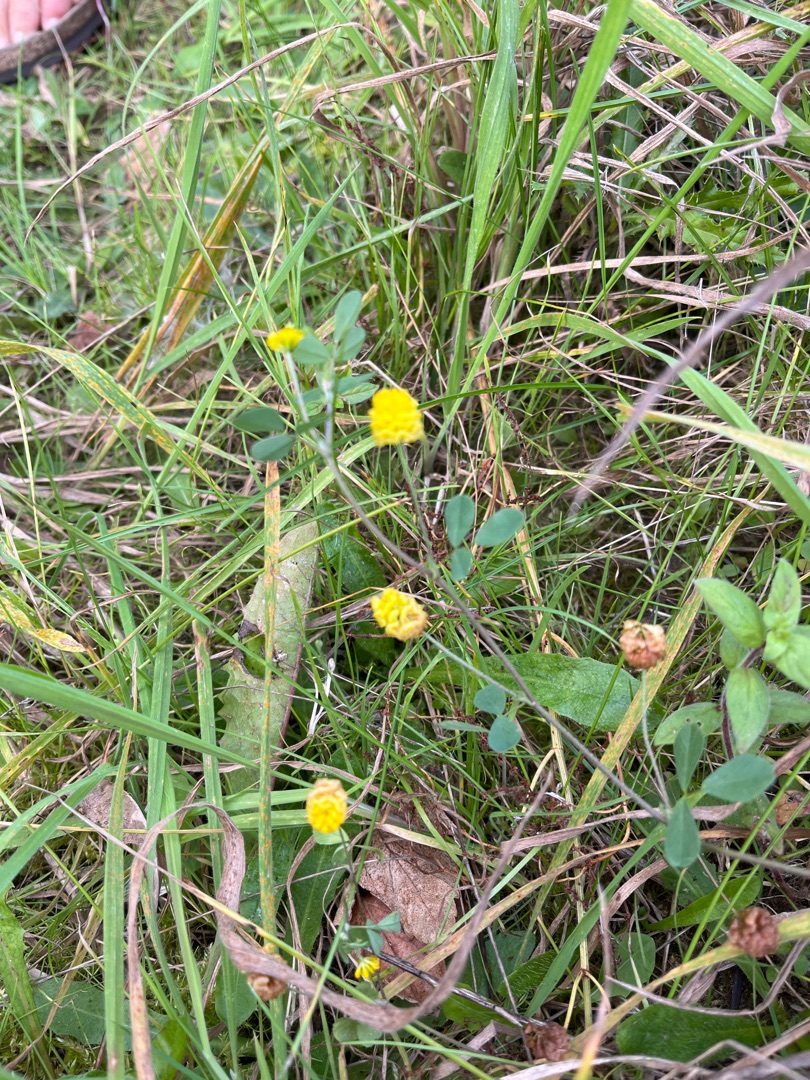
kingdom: Plantae
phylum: Tracheophyta
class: Magnoliopsida
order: Fabales
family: Fabaceae
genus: Trifolium
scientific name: Trifolium campestre
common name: Gul kløver
